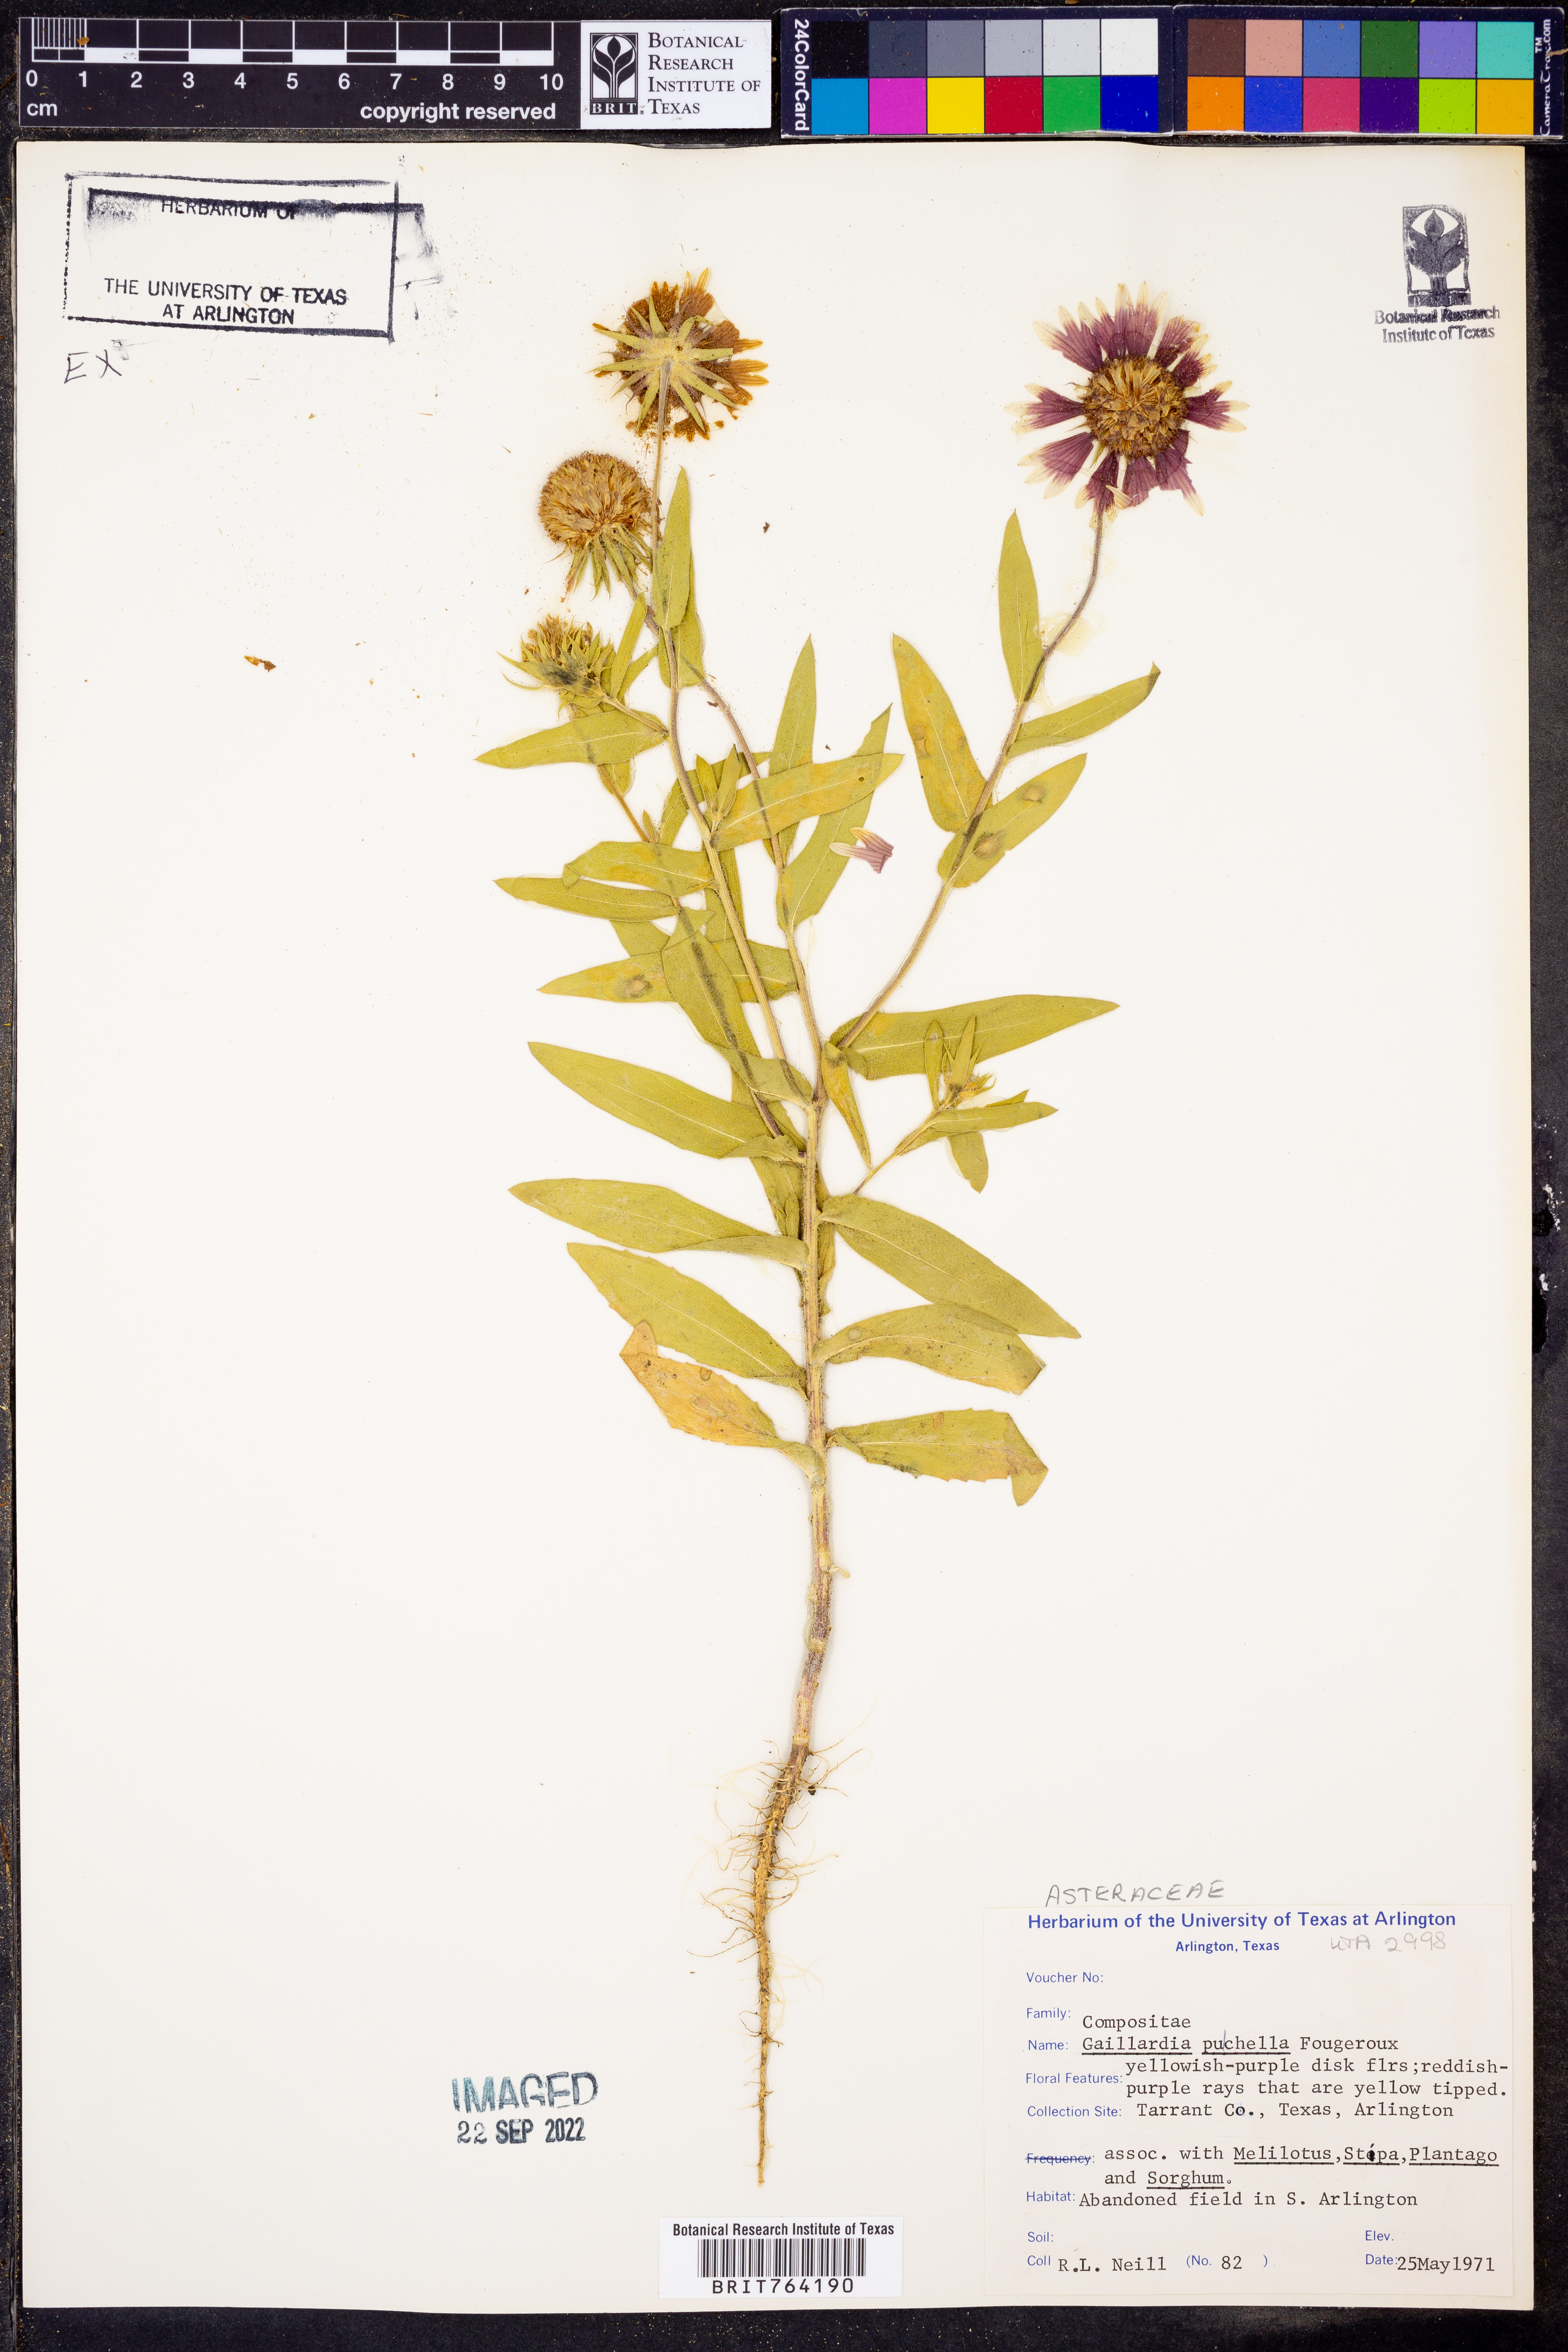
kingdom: Plantae
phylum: Tracheophyta
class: Magnoliopsida
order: Asterales
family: Asteraceae
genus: Gaillardia
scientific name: Gaillardia pulchella
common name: Firewheel
